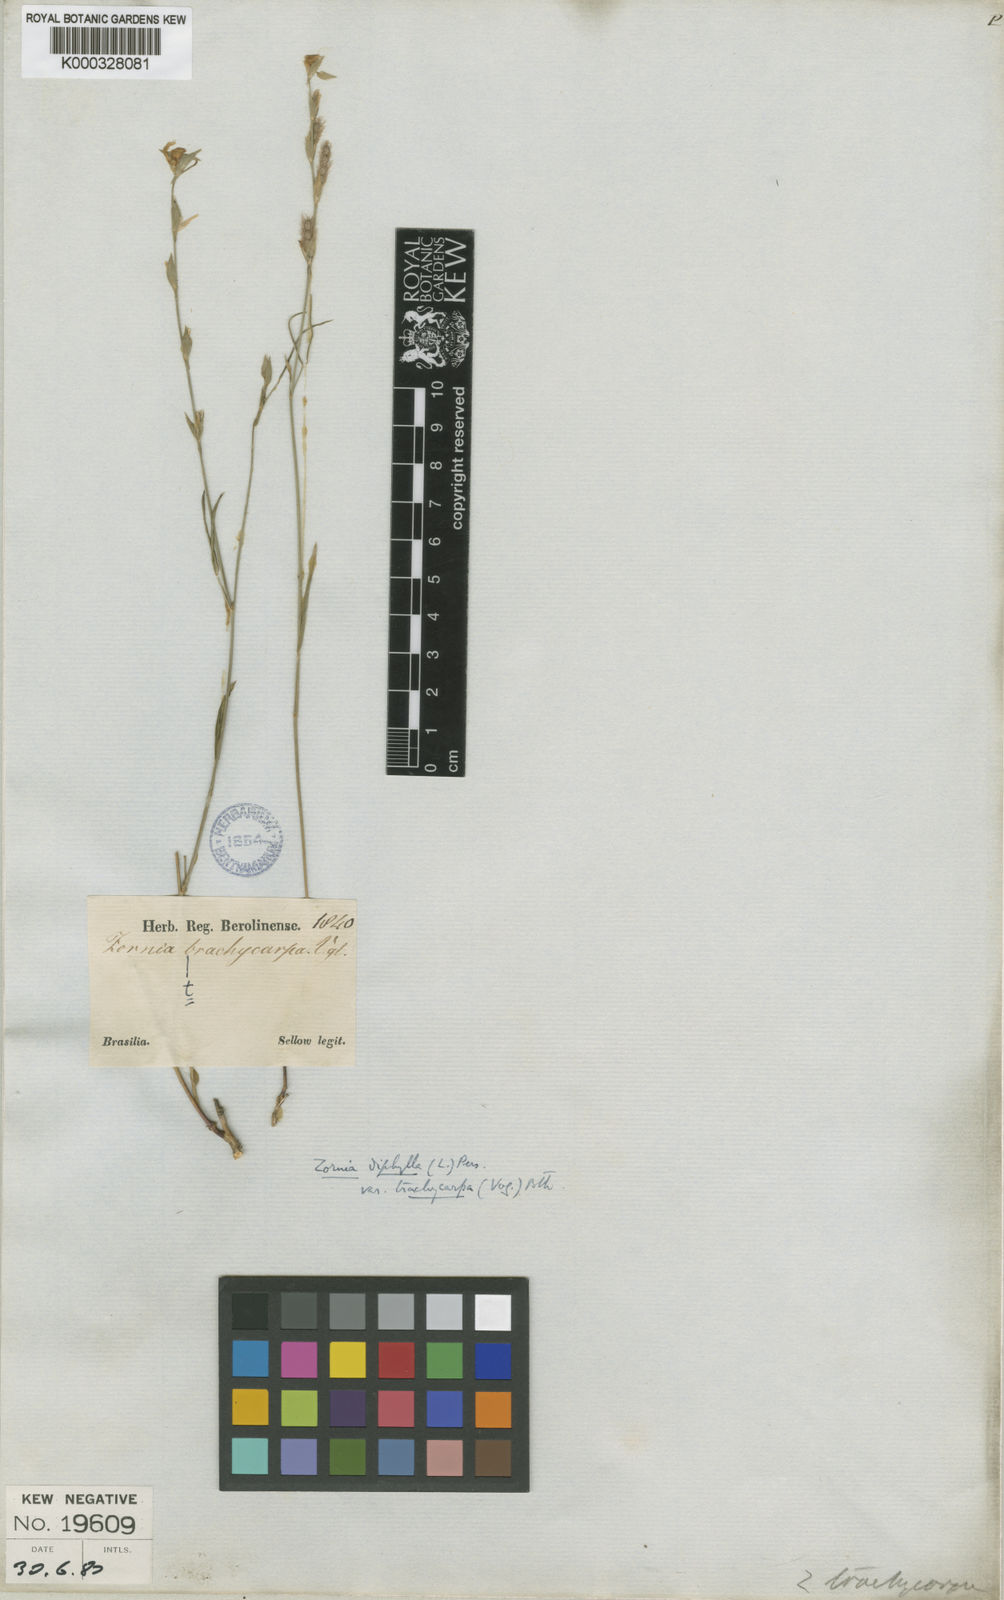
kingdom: Plantae
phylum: Tracheophyta
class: Magnoliopsida
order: Fabales
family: Fabaceae
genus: Zornia
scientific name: Zornia trachycarpa
